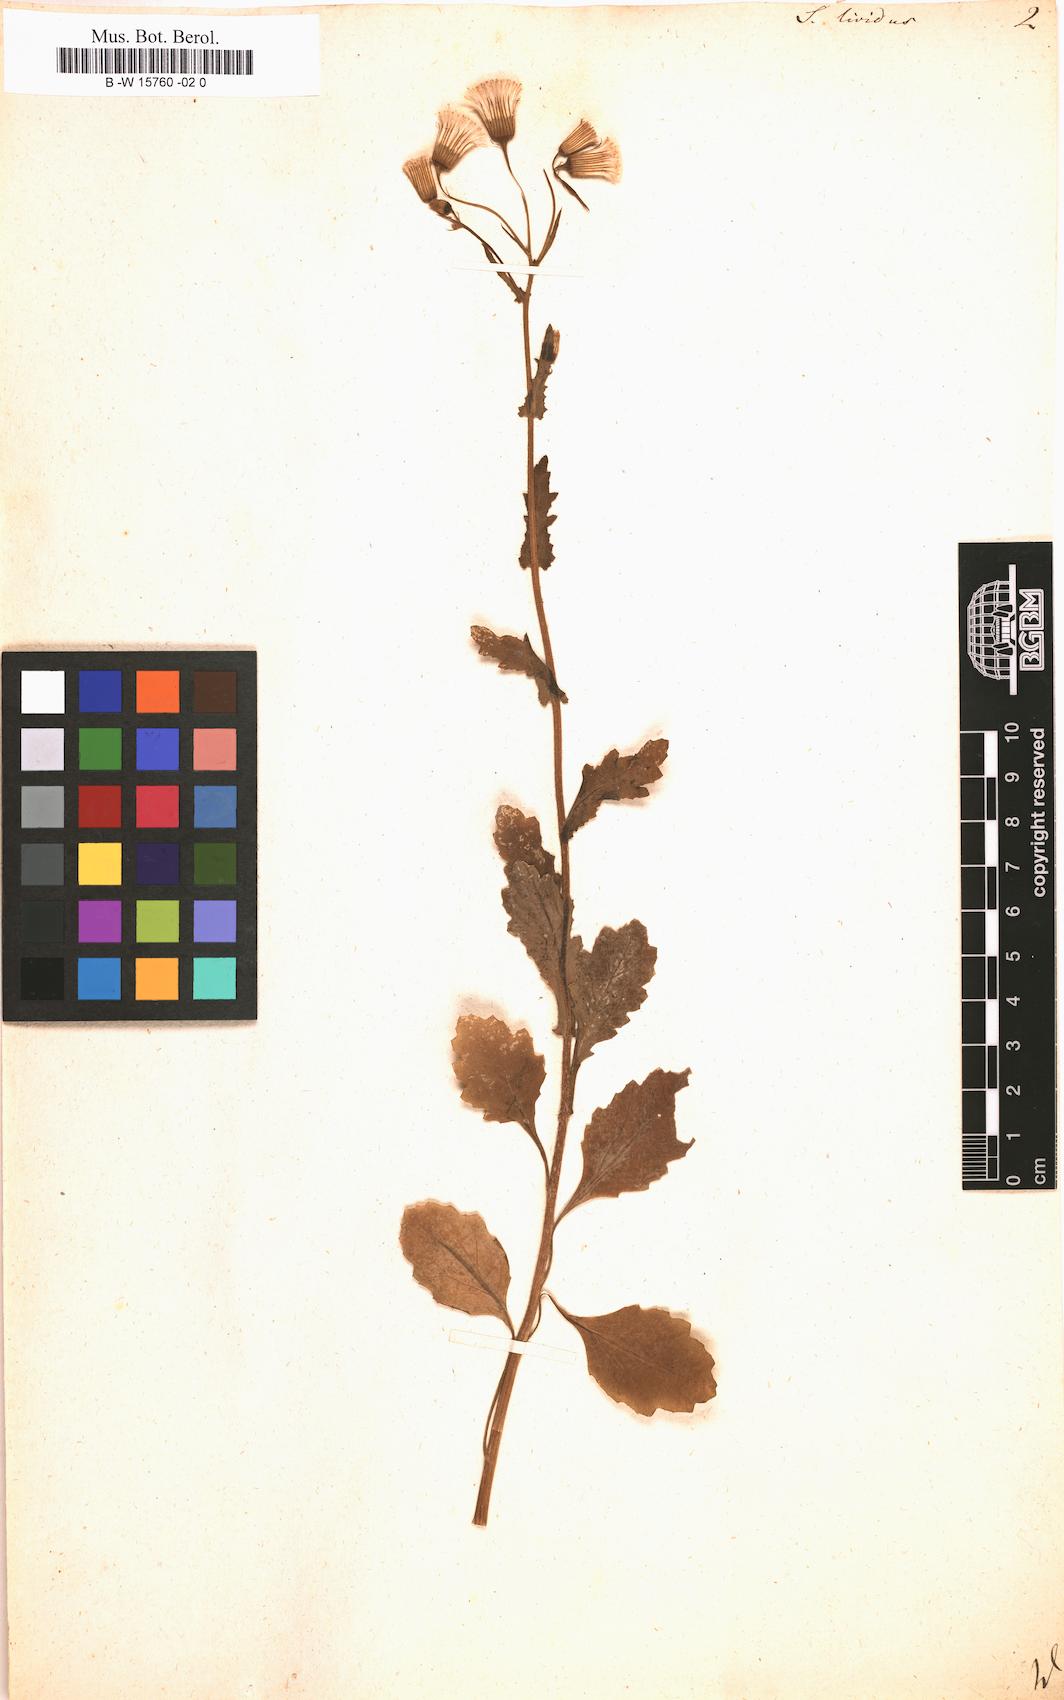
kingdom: Plantae
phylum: Tracheophyta
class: Magnoliopsida
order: Asterales
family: Asteraceae
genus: Senecio
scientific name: Senecio lividus
